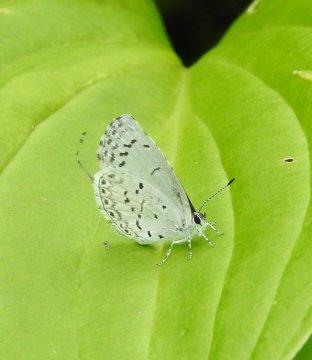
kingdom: Animalia
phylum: Arthropoda
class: Insecta
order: Lepidoptera
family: Lycaenidae
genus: Celastrina
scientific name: Celastrina lucia
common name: Northern Spring Azure
